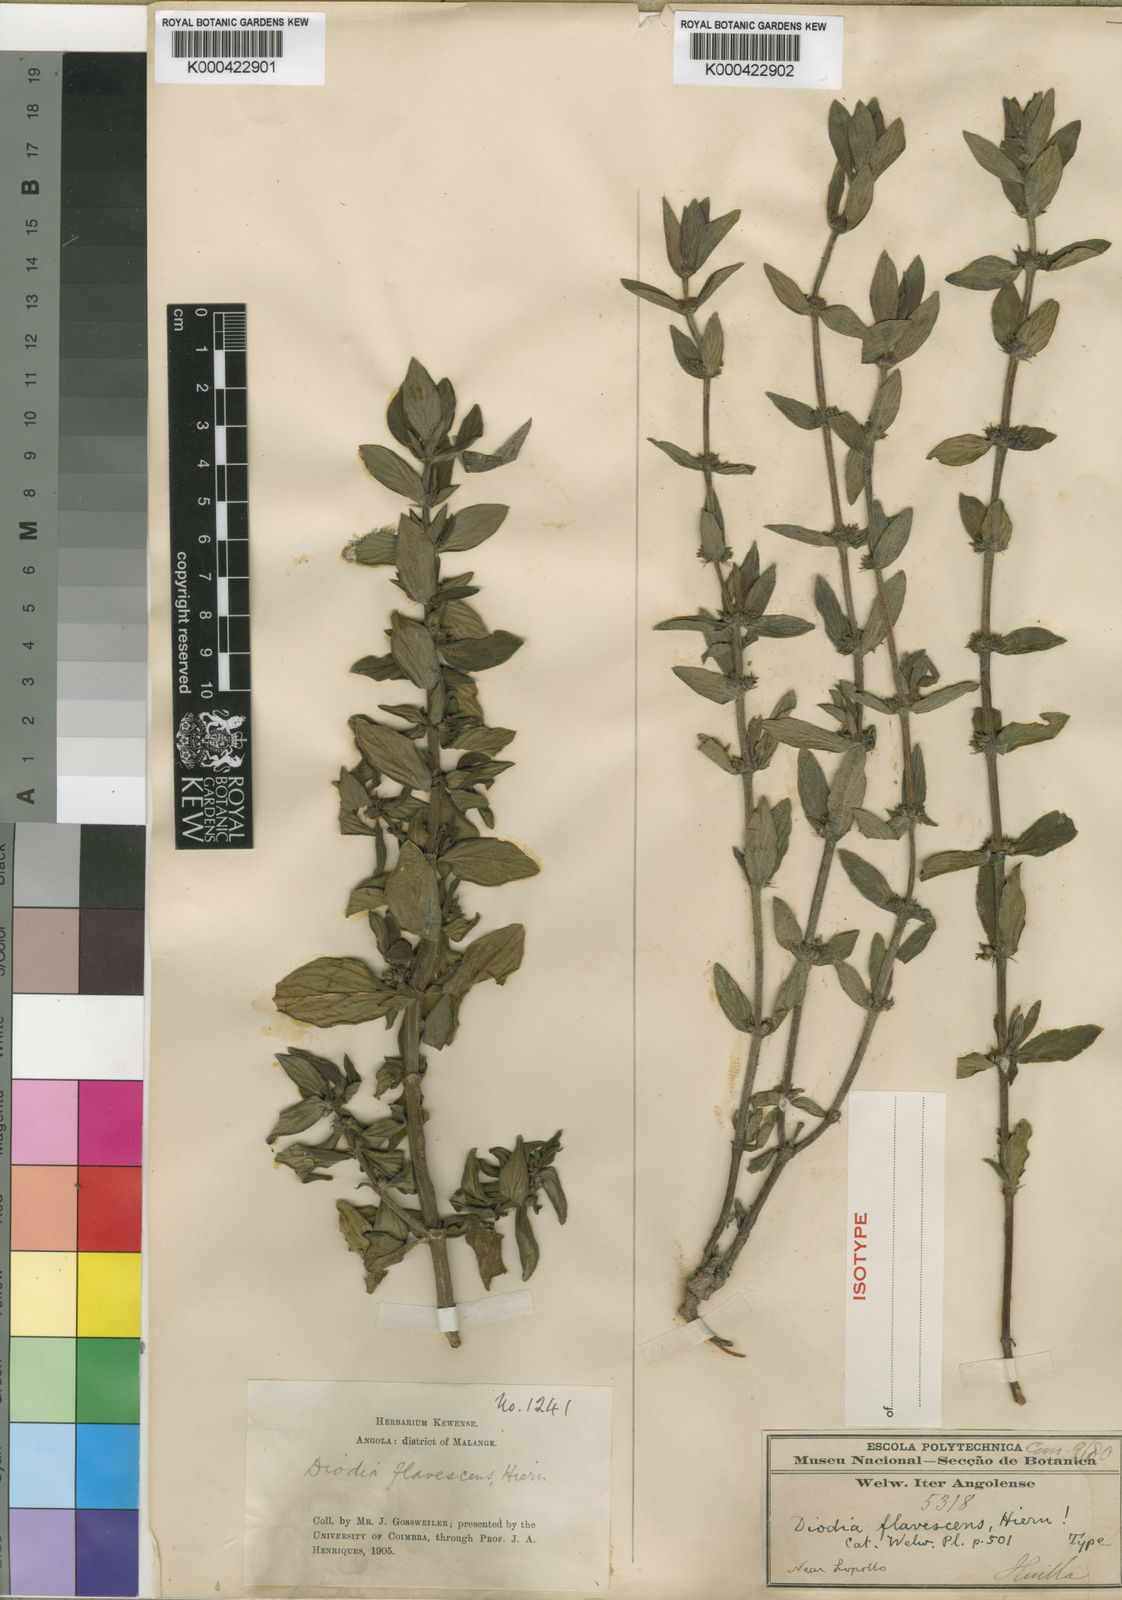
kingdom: Plantae
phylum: Tracheophyta
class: Magnoliopsida
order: Gentianales
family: Rubiaceae
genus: Diodia
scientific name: Diodia flavescens
